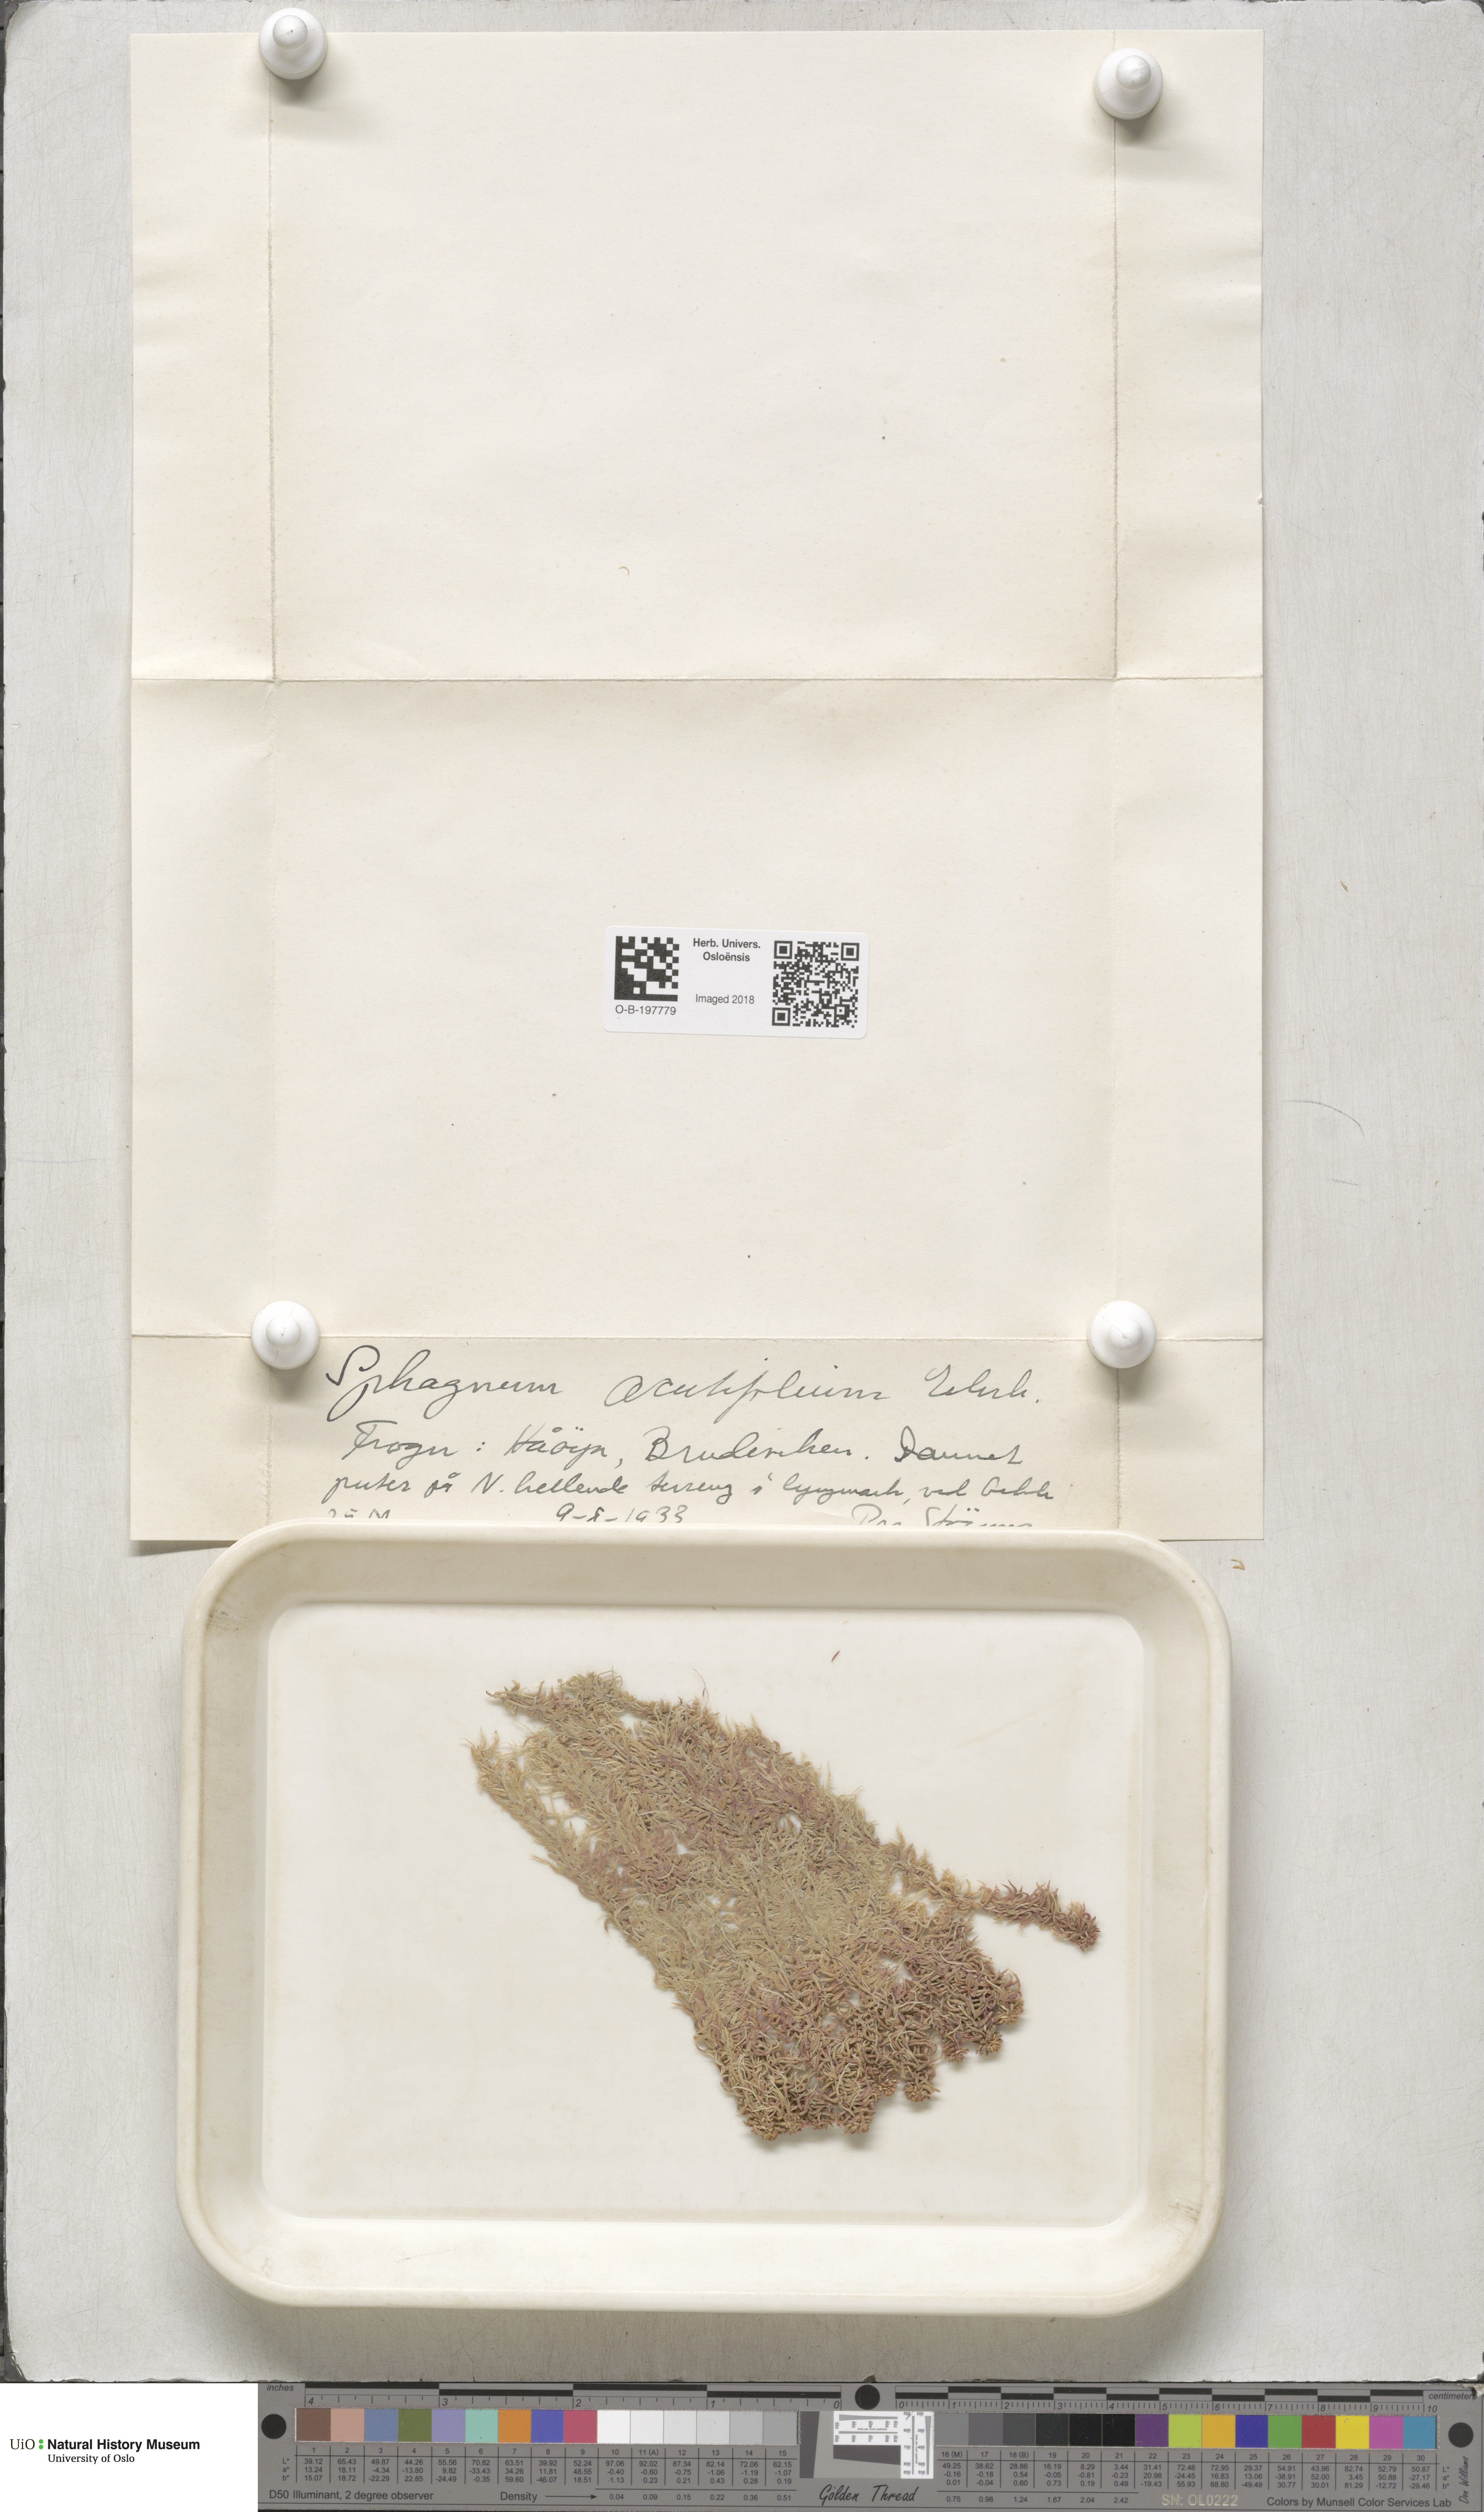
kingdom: Plantae
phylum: Bryophyta
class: Sphagnopsida
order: Sphagnales
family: Sphagnaceae
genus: Sphagnum
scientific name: Sphagnum capillifolium
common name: Small red peat moss
